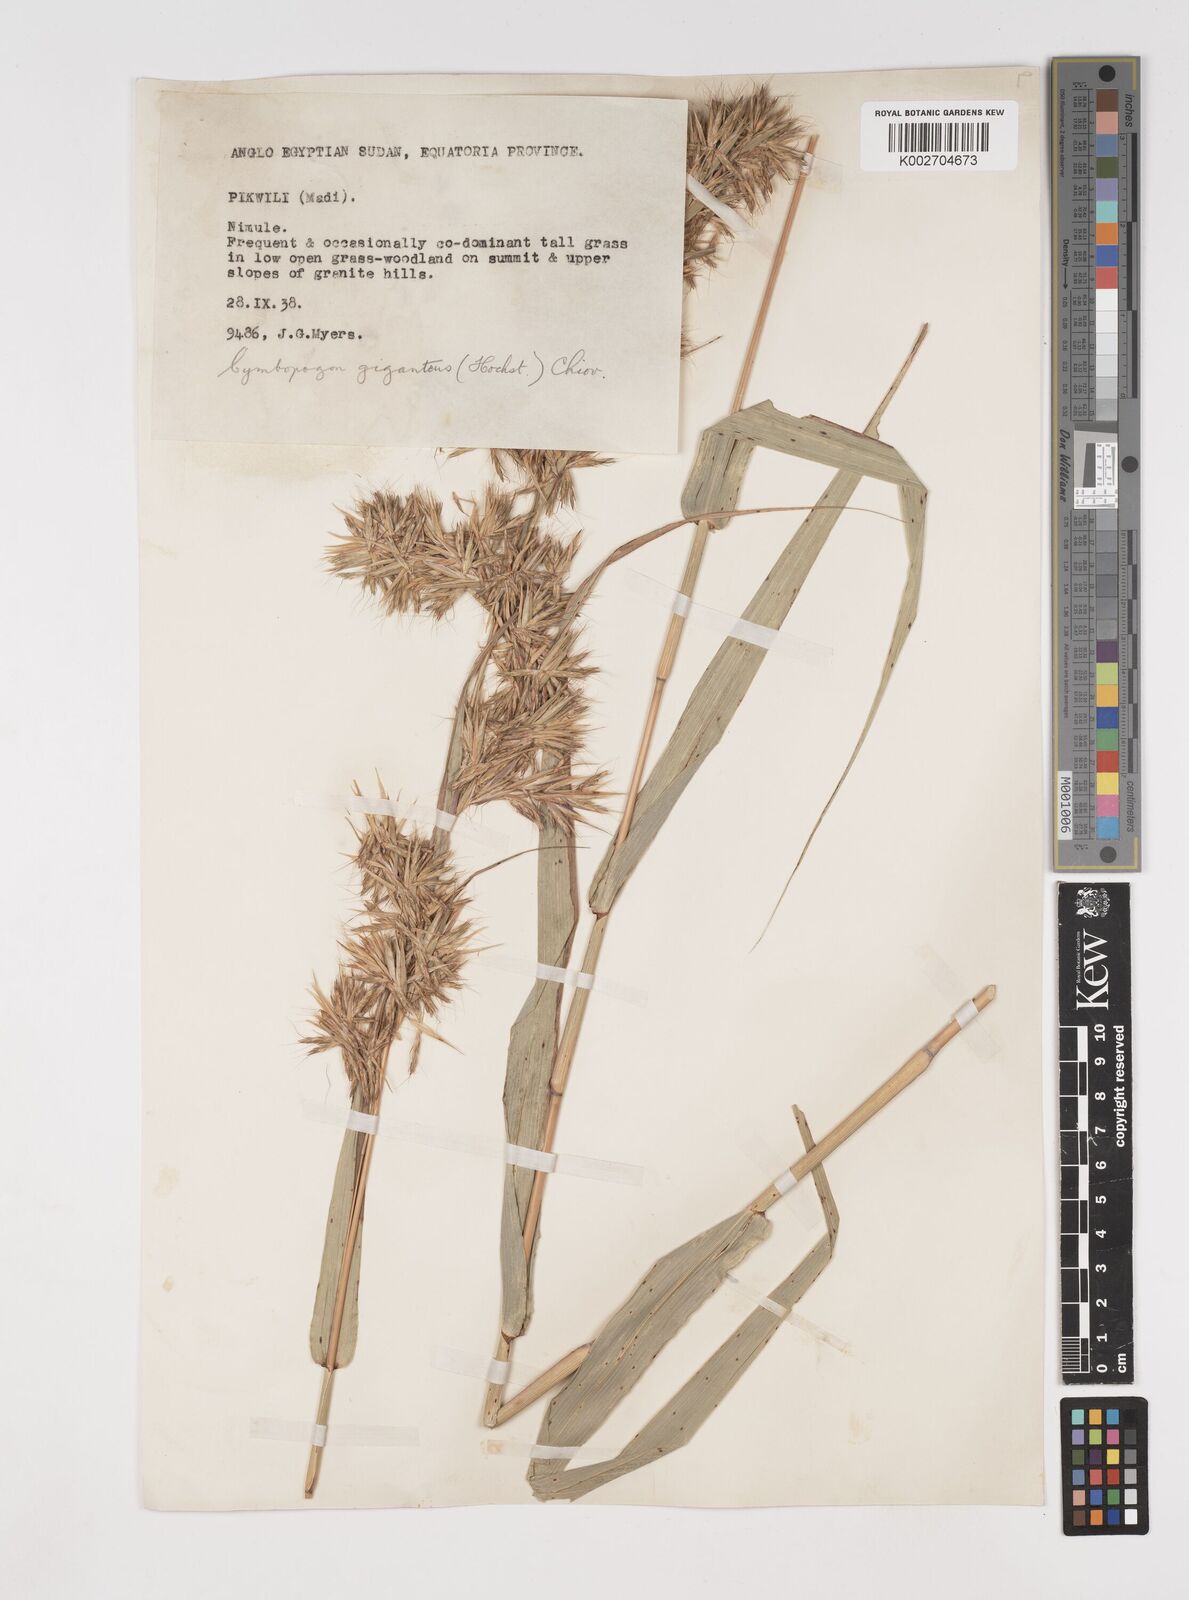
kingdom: Plantae
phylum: Tracheophyta
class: Liliopsida
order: Poales
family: Poaceae
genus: Cymbopogon
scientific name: Cymbopogon giganteus
